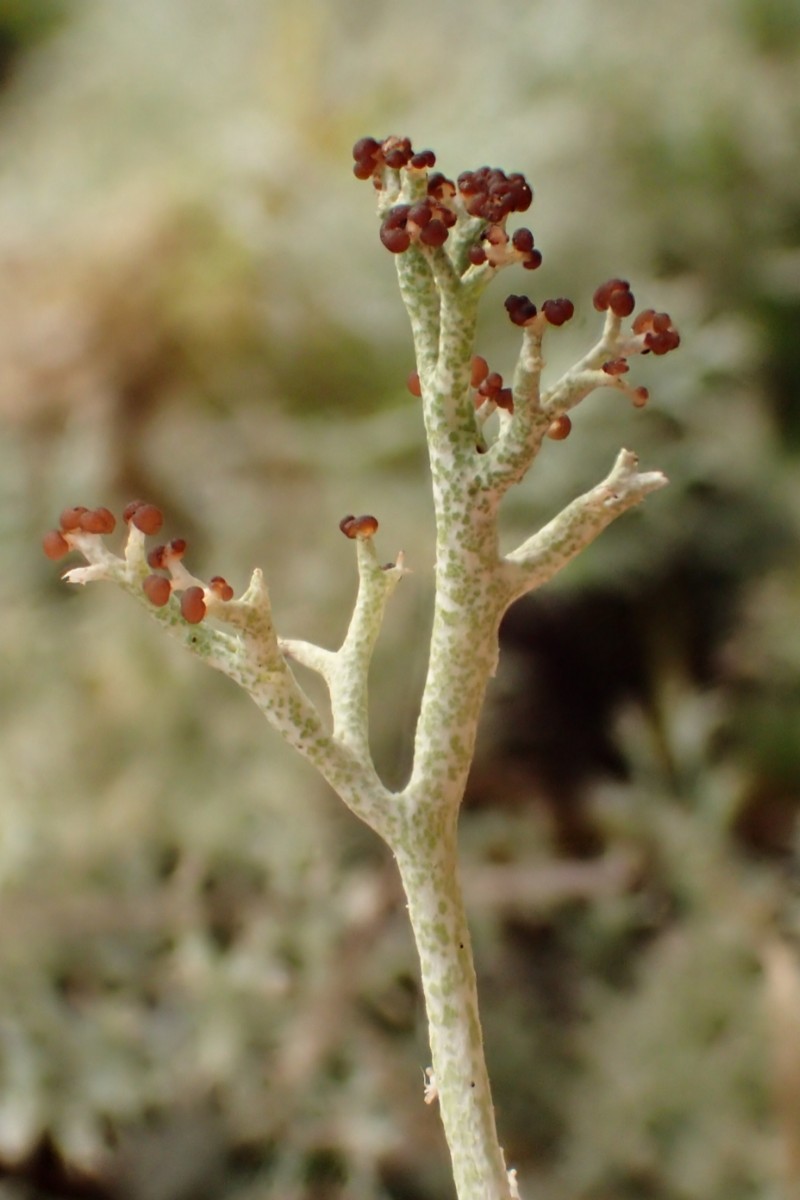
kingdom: Fungi
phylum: Ascomycota
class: Lecanoromycetes
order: Lecanorales
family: Cladoniaceae
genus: Cladonia
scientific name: Cladonia rangiformis
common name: spættet bægerlav
